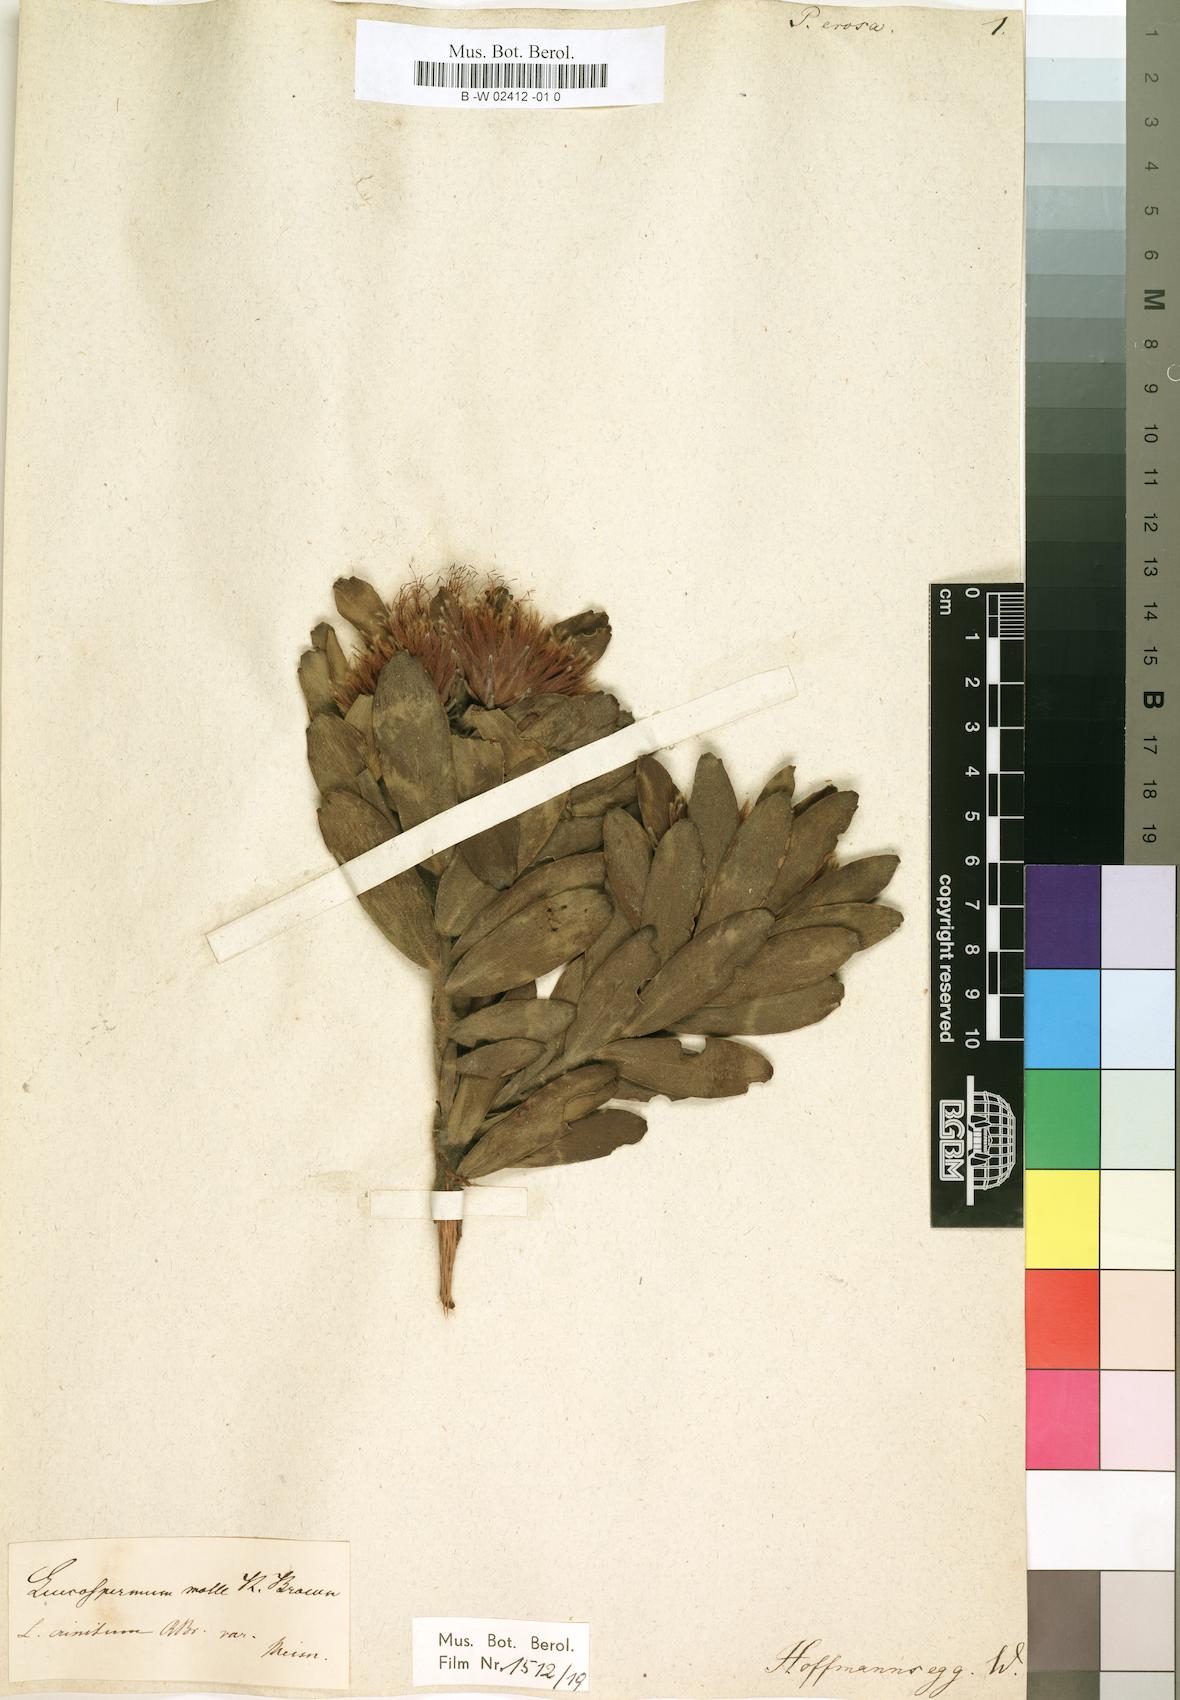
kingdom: Plantae
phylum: Tracheophyta
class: Magnoliopsida
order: Proteales
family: Proteaceae
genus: Leucospermum
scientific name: Leucospermum
